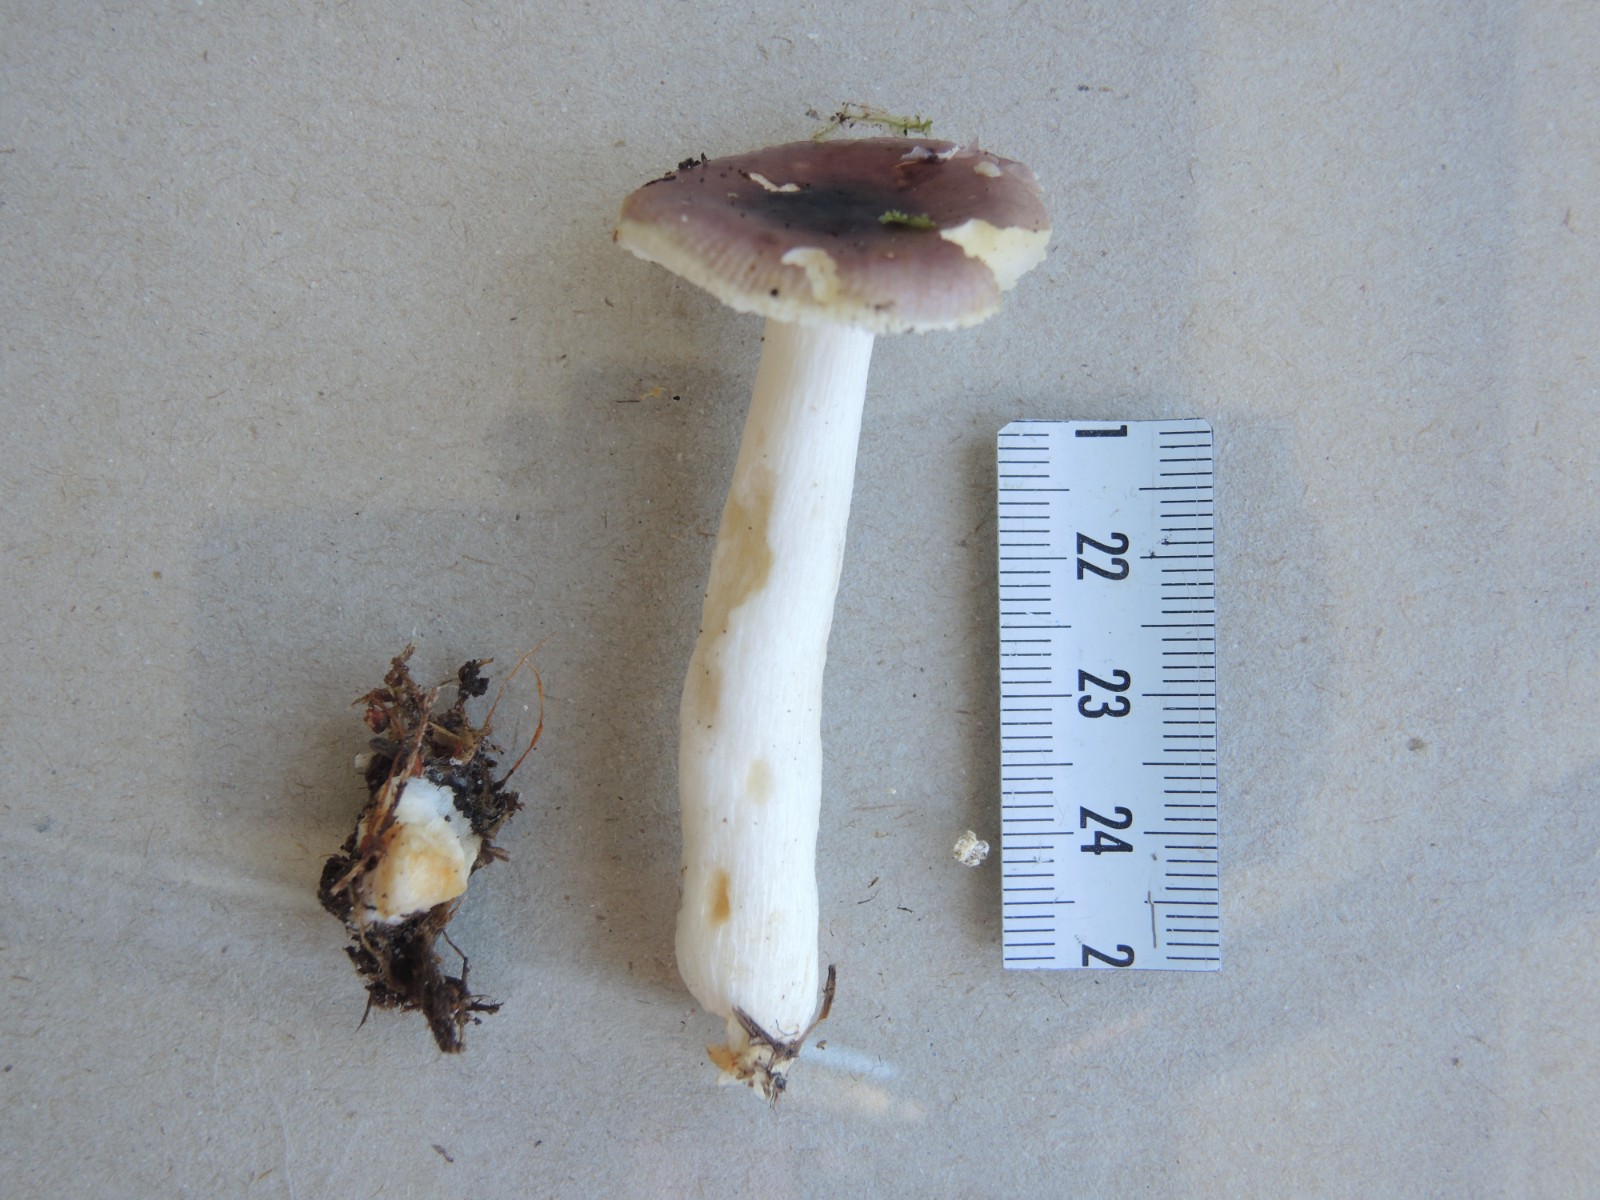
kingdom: Fungi
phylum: Basidiomycota
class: Agaricomycetes
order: Russulales
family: Russulaceae
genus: Russula
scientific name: Russula puellaris
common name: gulstokket skørhat
